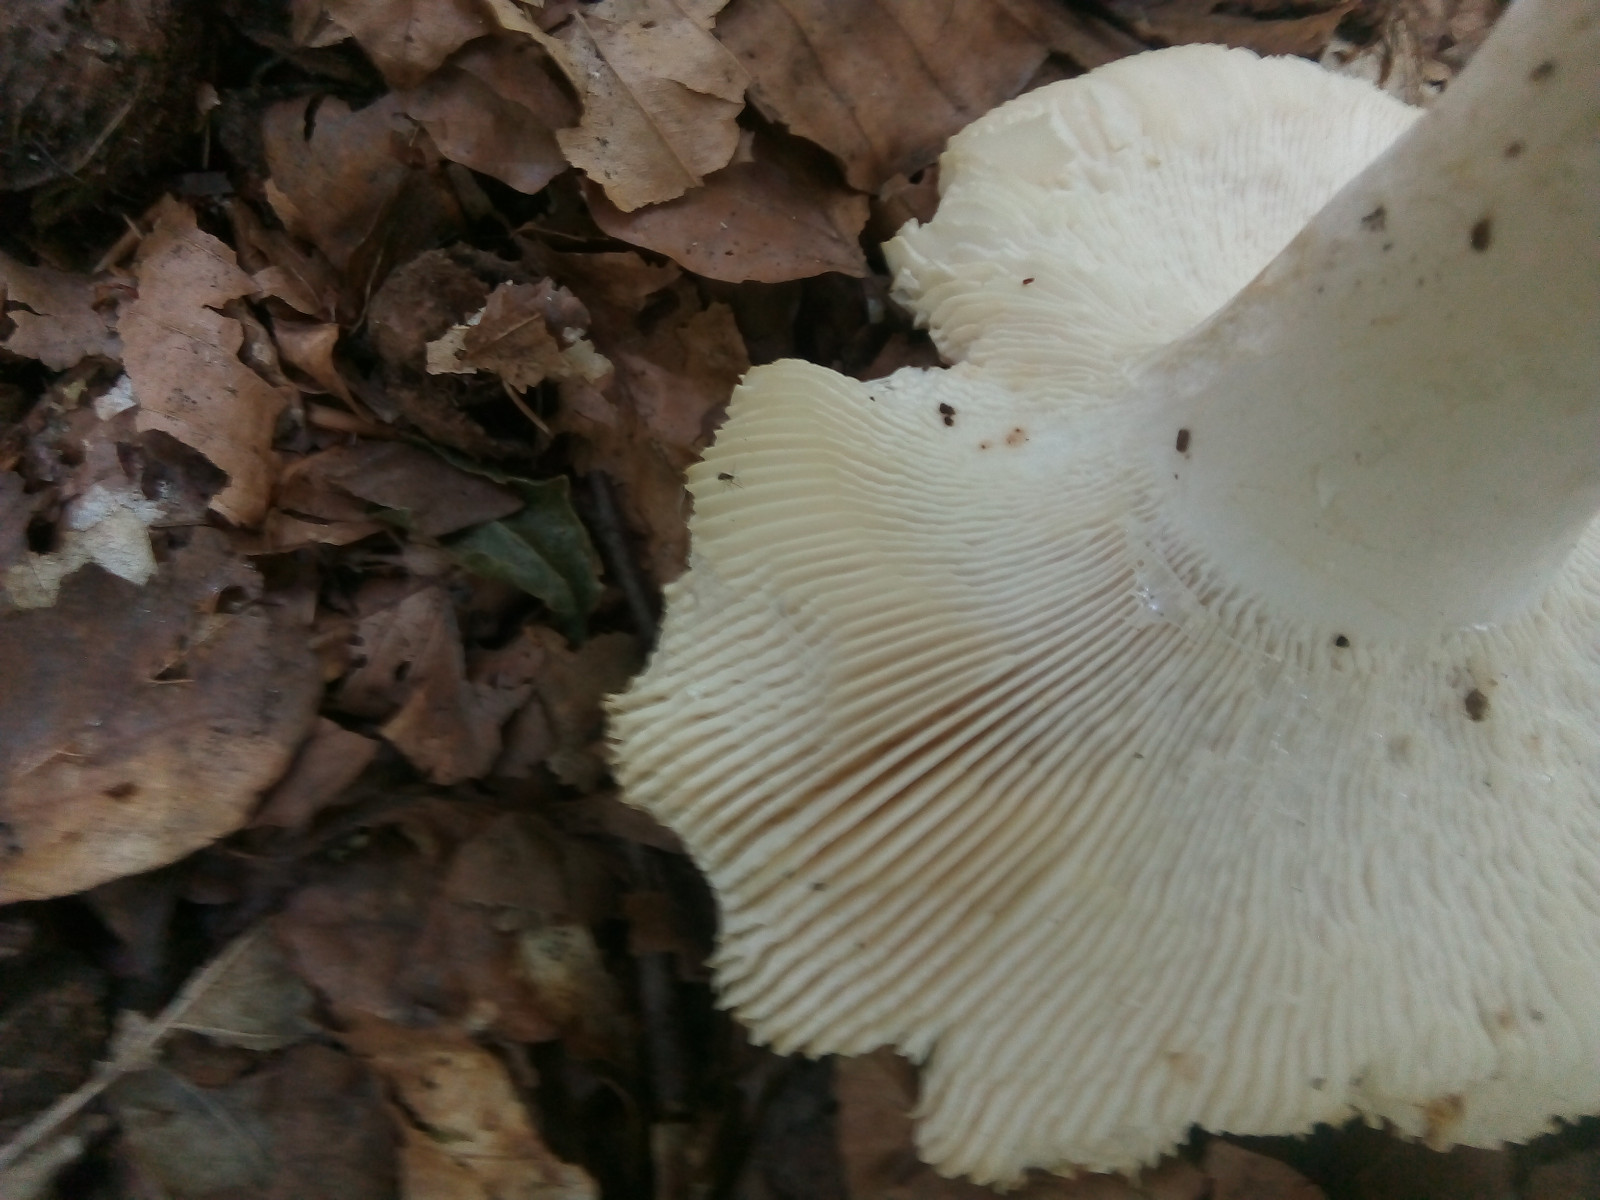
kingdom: Fungi
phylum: Basidiomycota
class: Agaricomycetes
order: Russulales
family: Russulaceae
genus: Russula
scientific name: Russula
